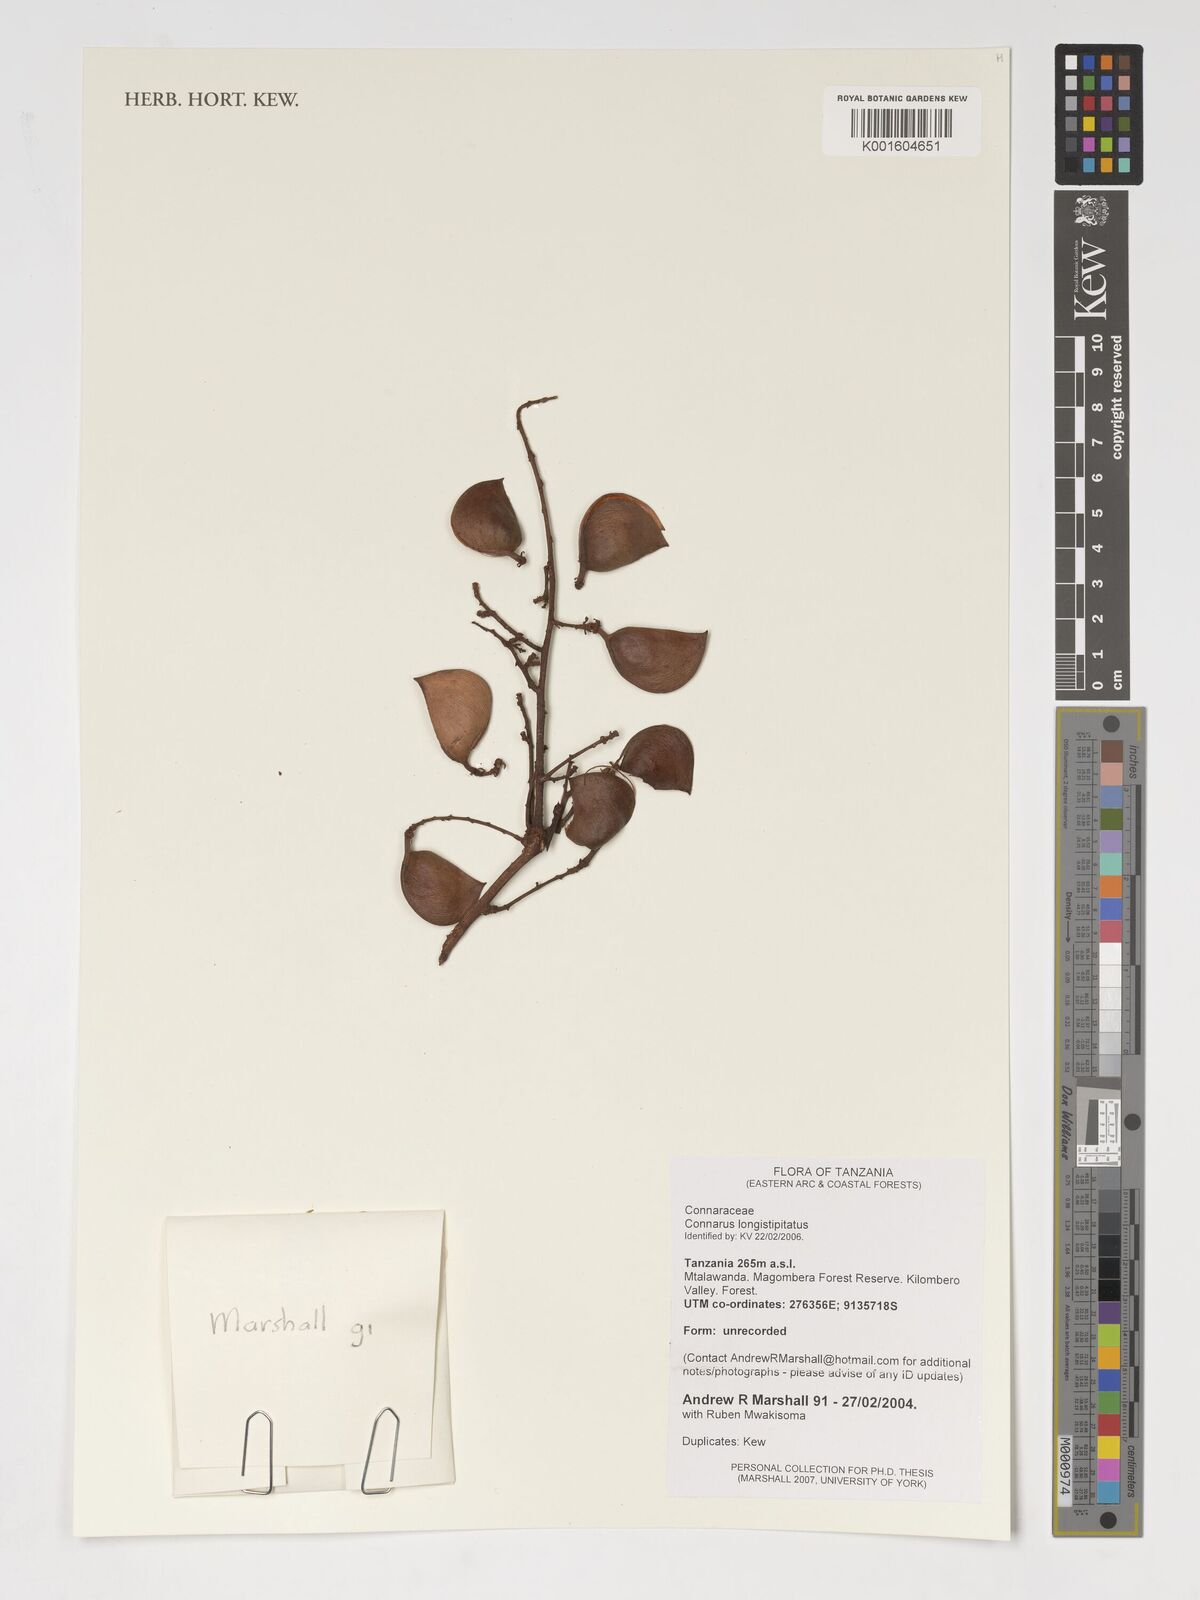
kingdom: Plantae
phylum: Tracheophyta
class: Magnoliopsida
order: Oxalidales
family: Connaraceae
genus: Connarus
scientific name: Connarus longestipitatus
